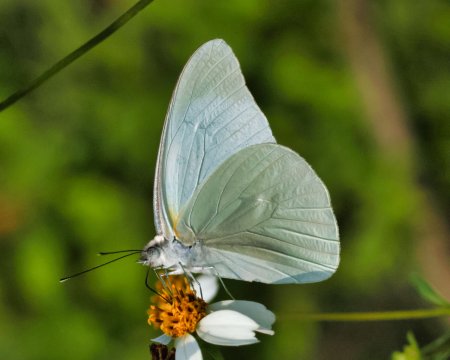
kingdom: Animalia
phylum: Arthropoda
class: Insecta
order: Lepidoptera
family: Pieridae
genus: Glutophrissa
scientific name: Glutophrissa drusilla
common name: Florida White
